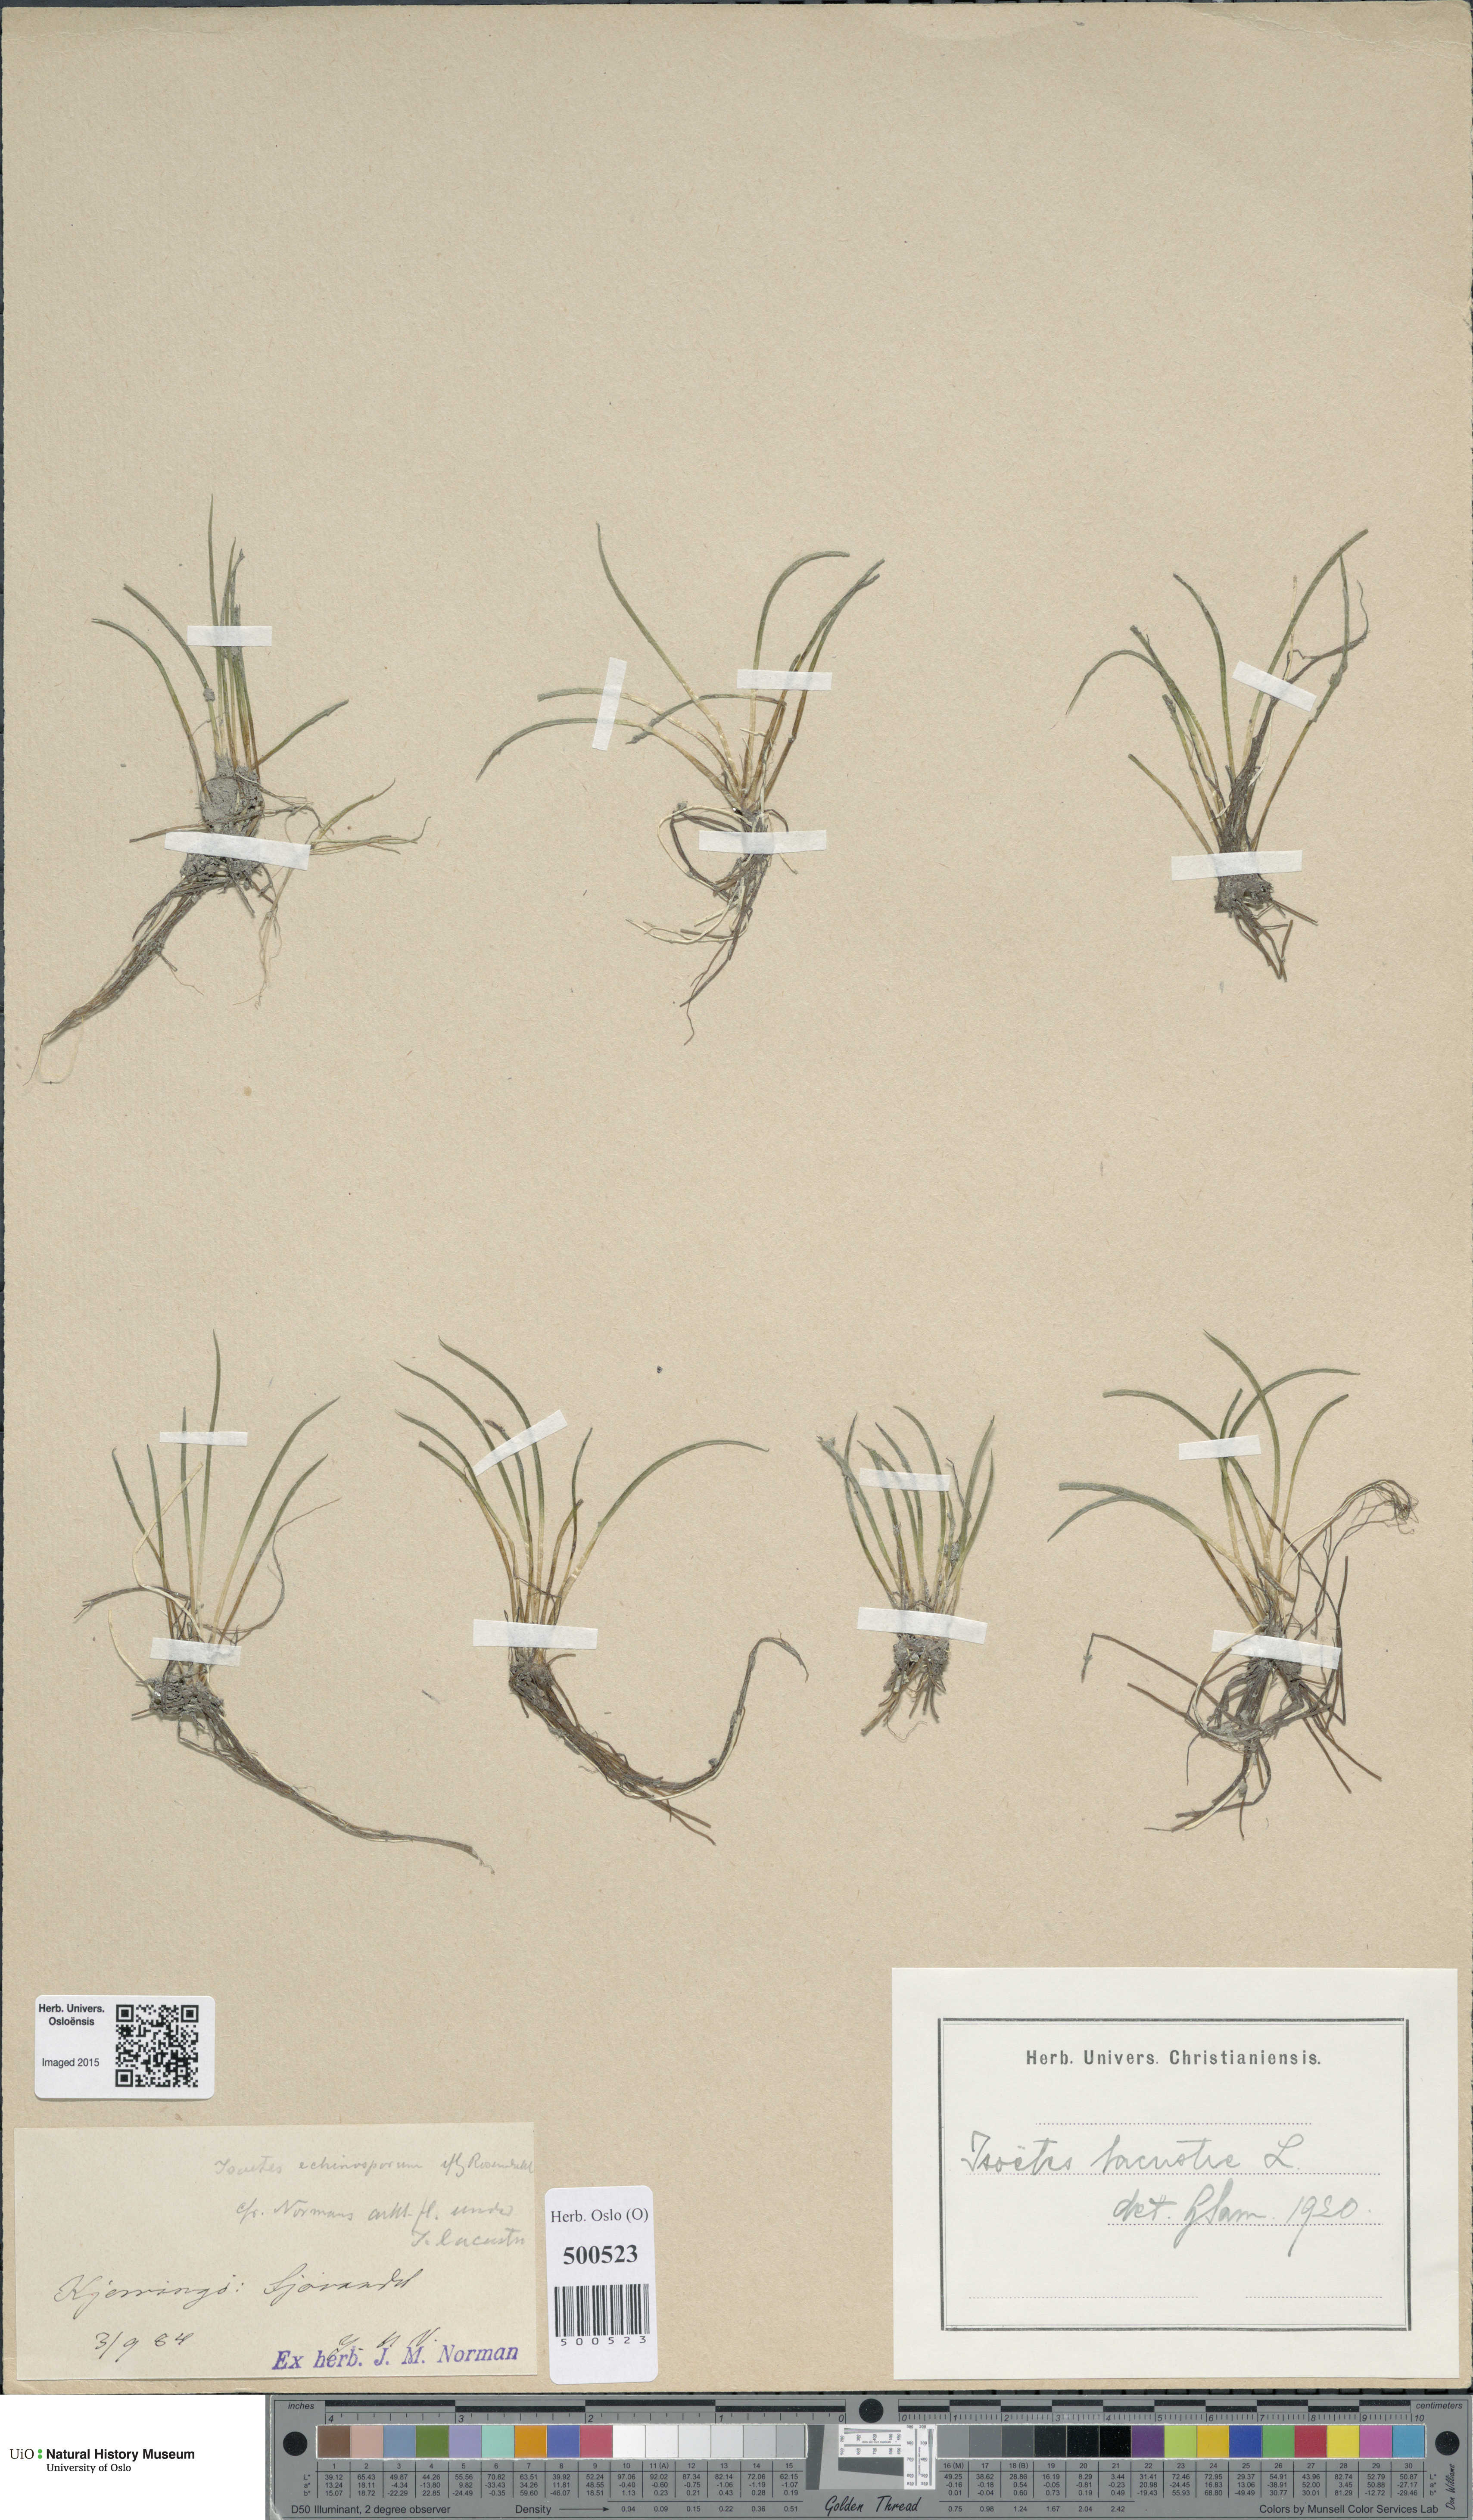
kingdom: Plantae
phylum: Tracheophyta
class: Lycopodiopsida
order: Isoetales
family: Isoetaceae
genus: Isoetes
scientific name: Isoetes lacustris
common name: Common quillwort
